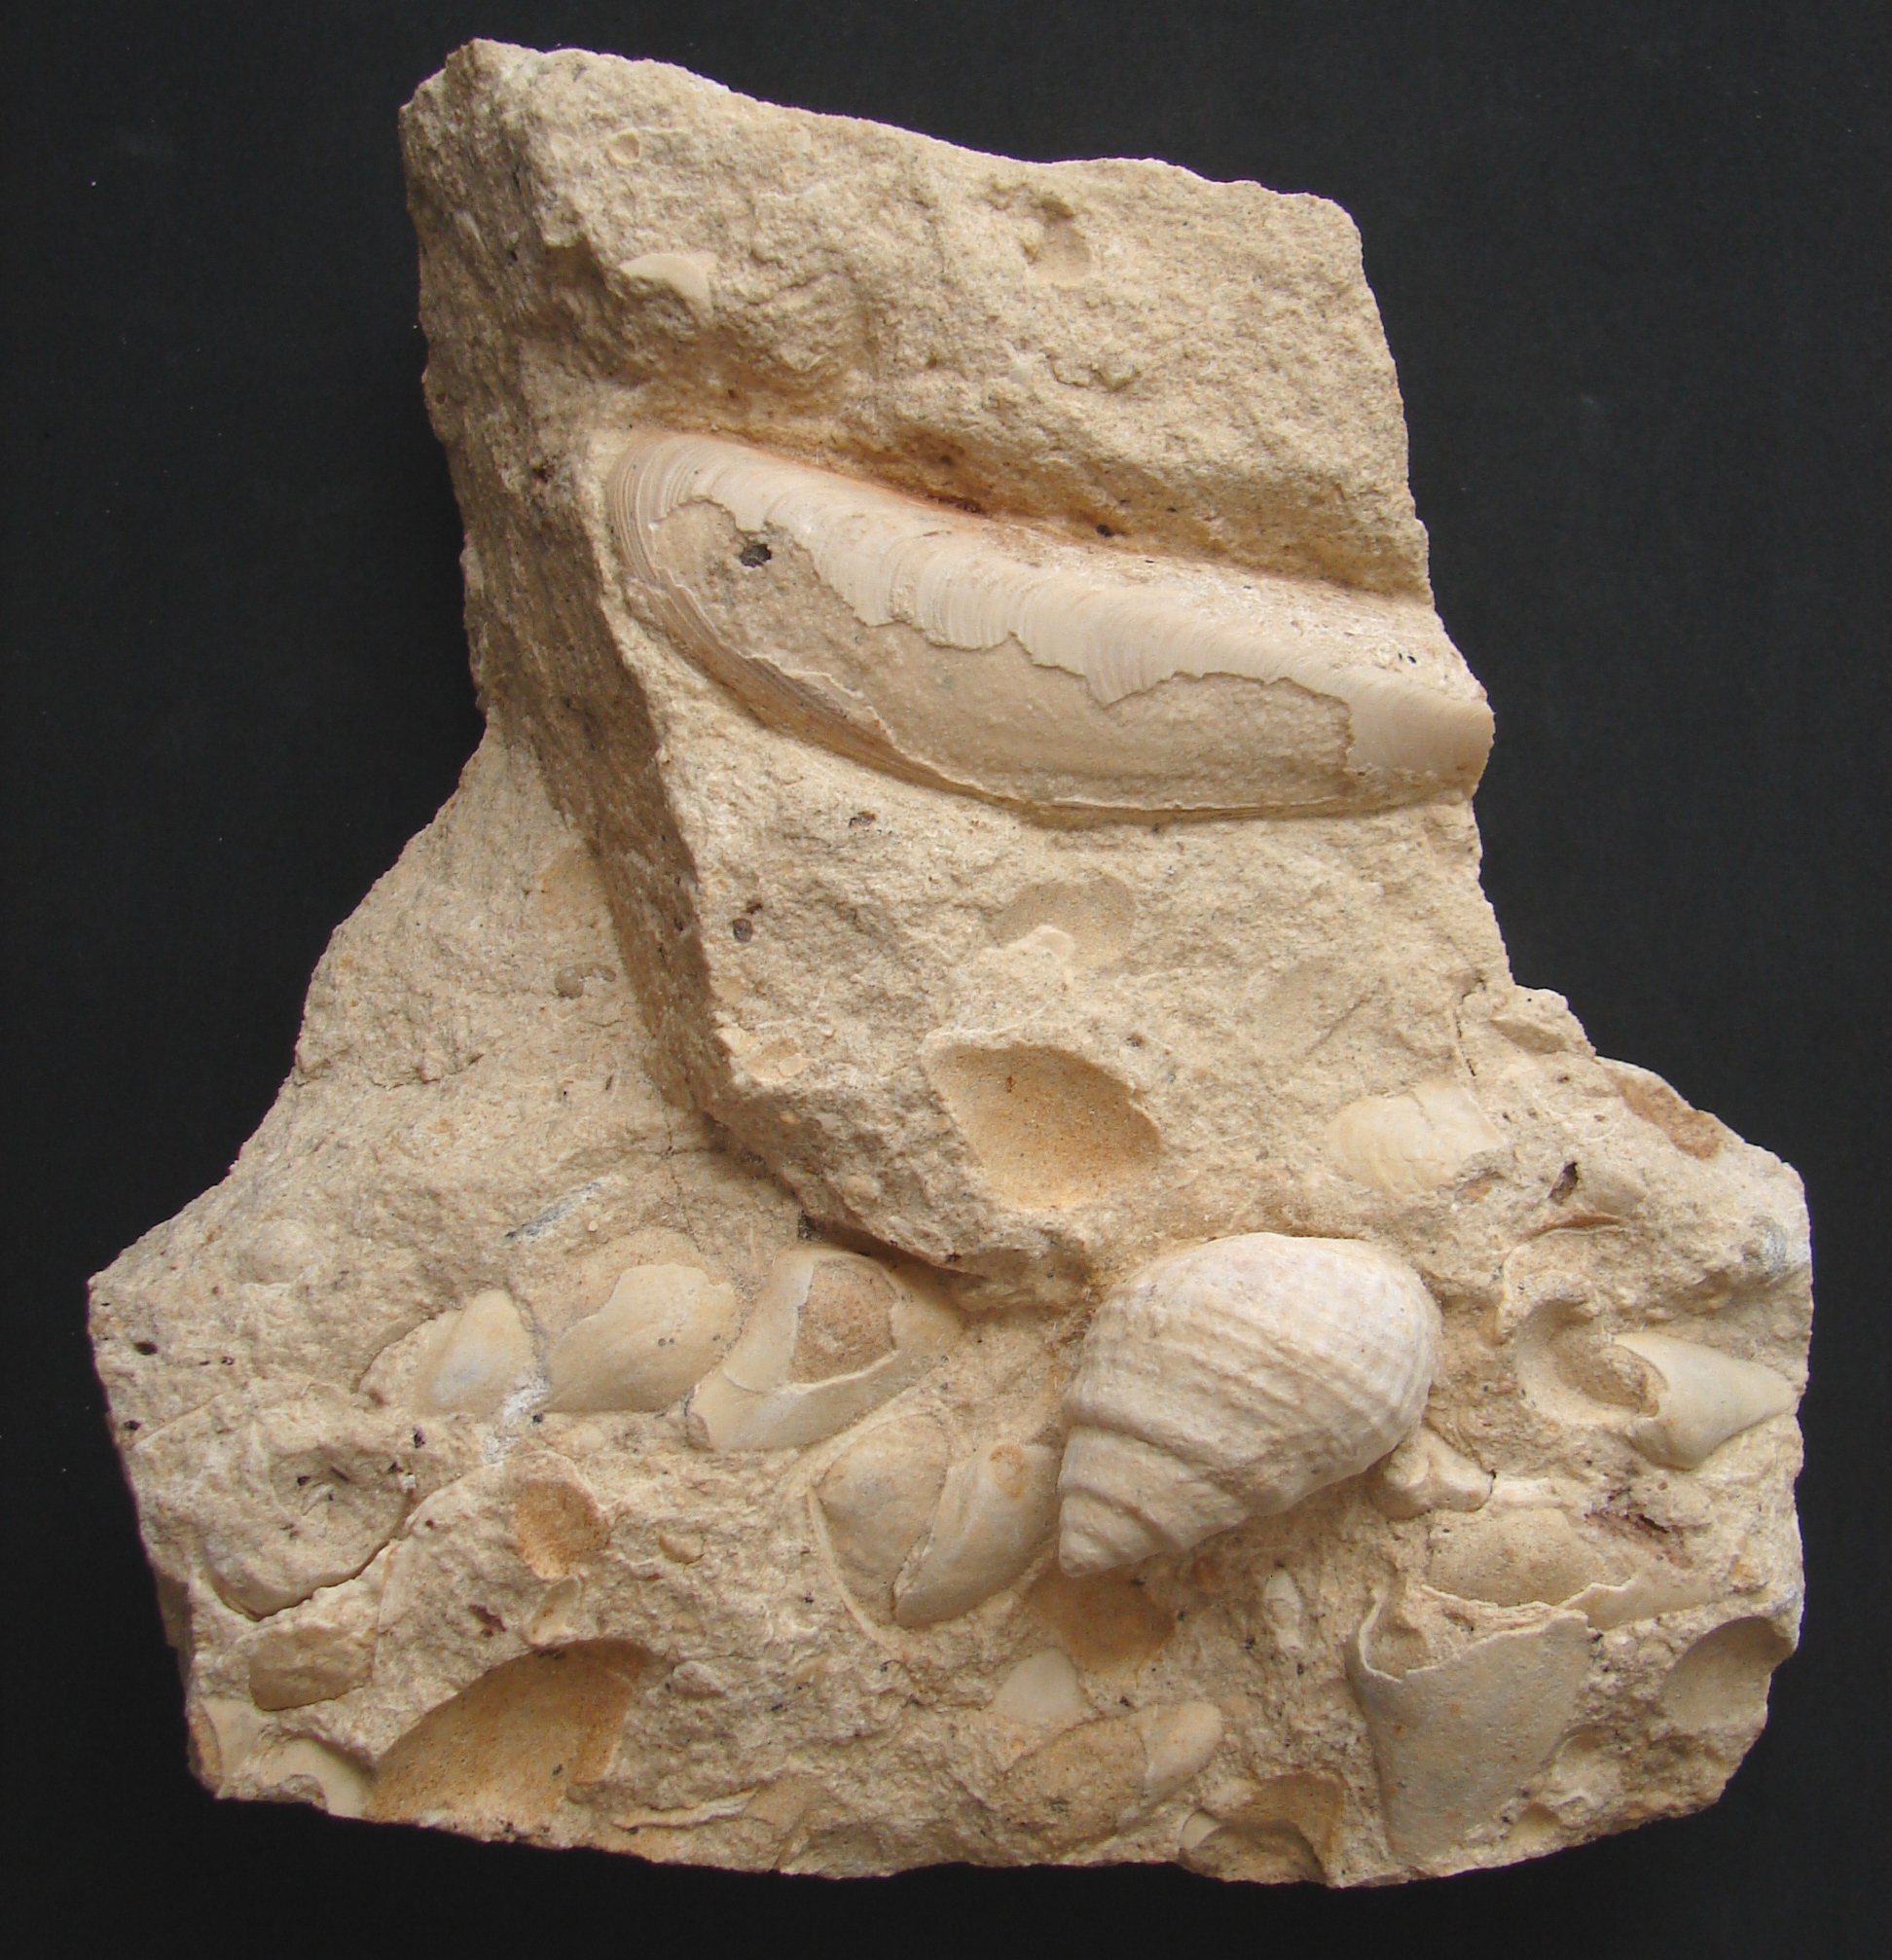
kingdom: Animalia
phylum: Mollusca
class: Gastropoda
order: Neogastropoda
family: Purpurinidae
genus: Microschiza
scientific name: Microschiza
